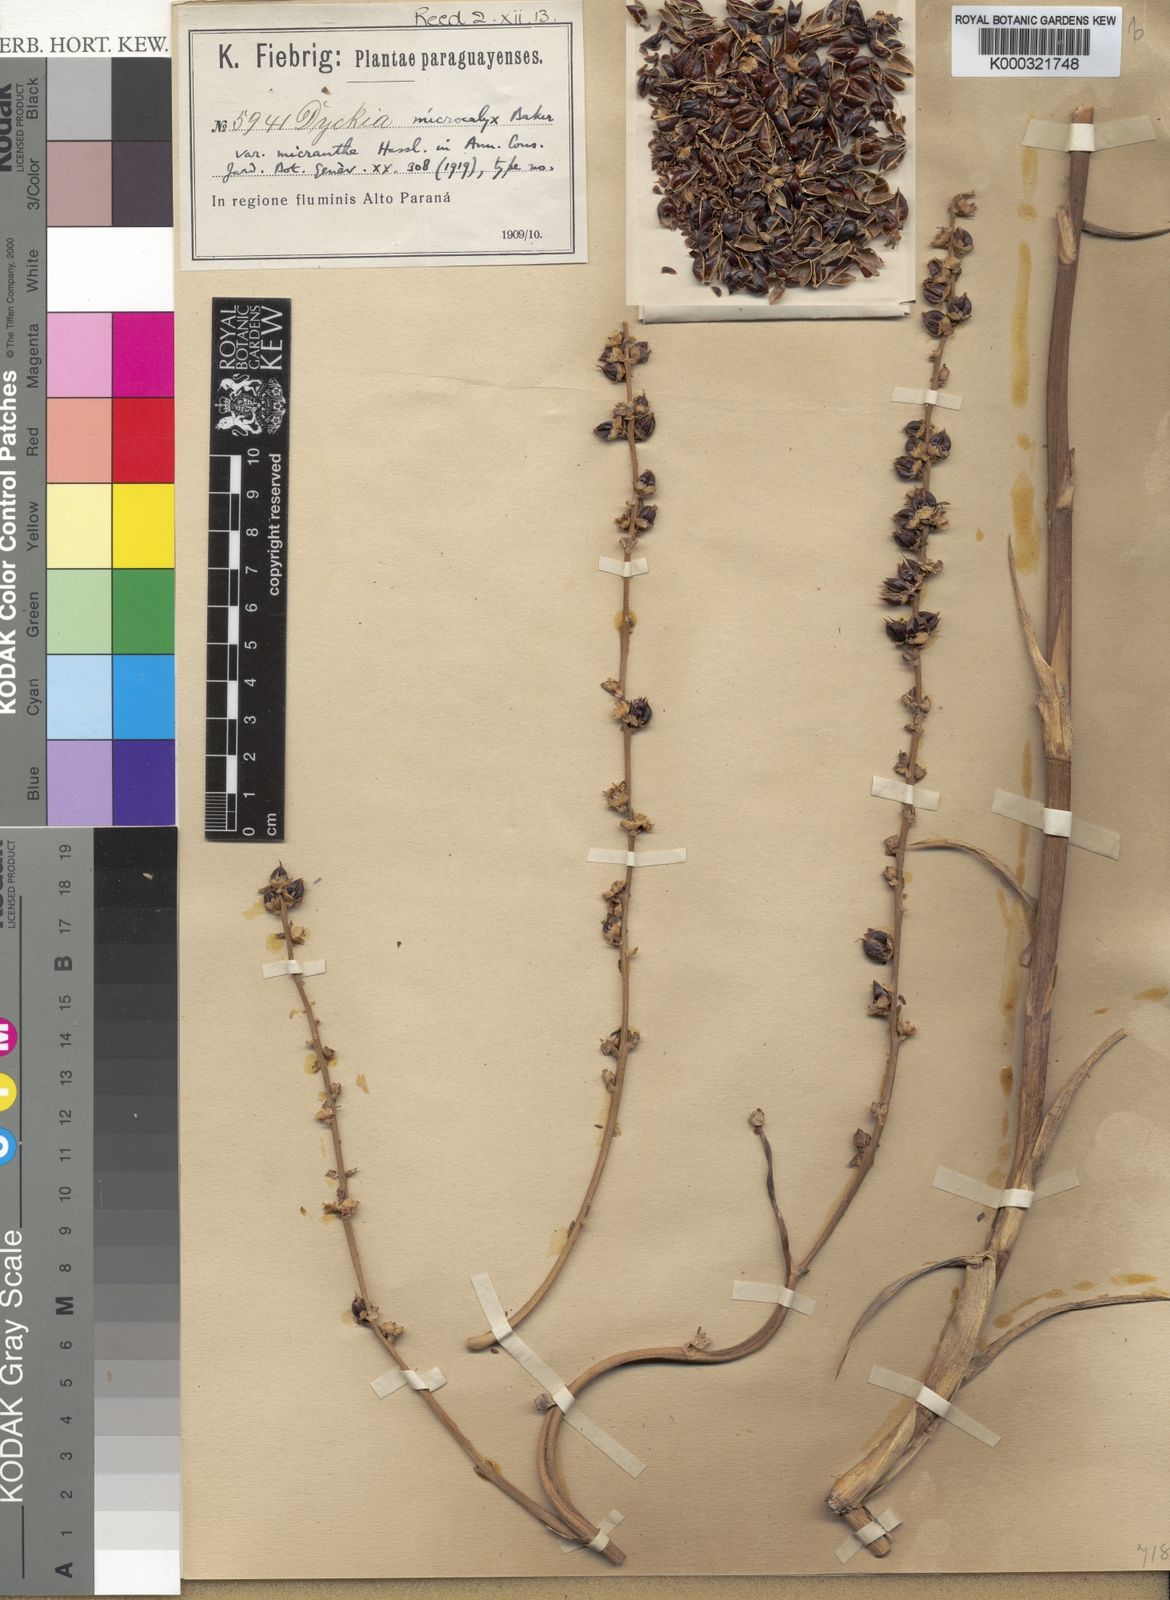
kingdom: Plantae
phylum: Tracheophyta
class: Liliopsida
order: Poales
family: Bromeliaceae
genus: Dyckia
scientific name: Dyckia microcalyx
